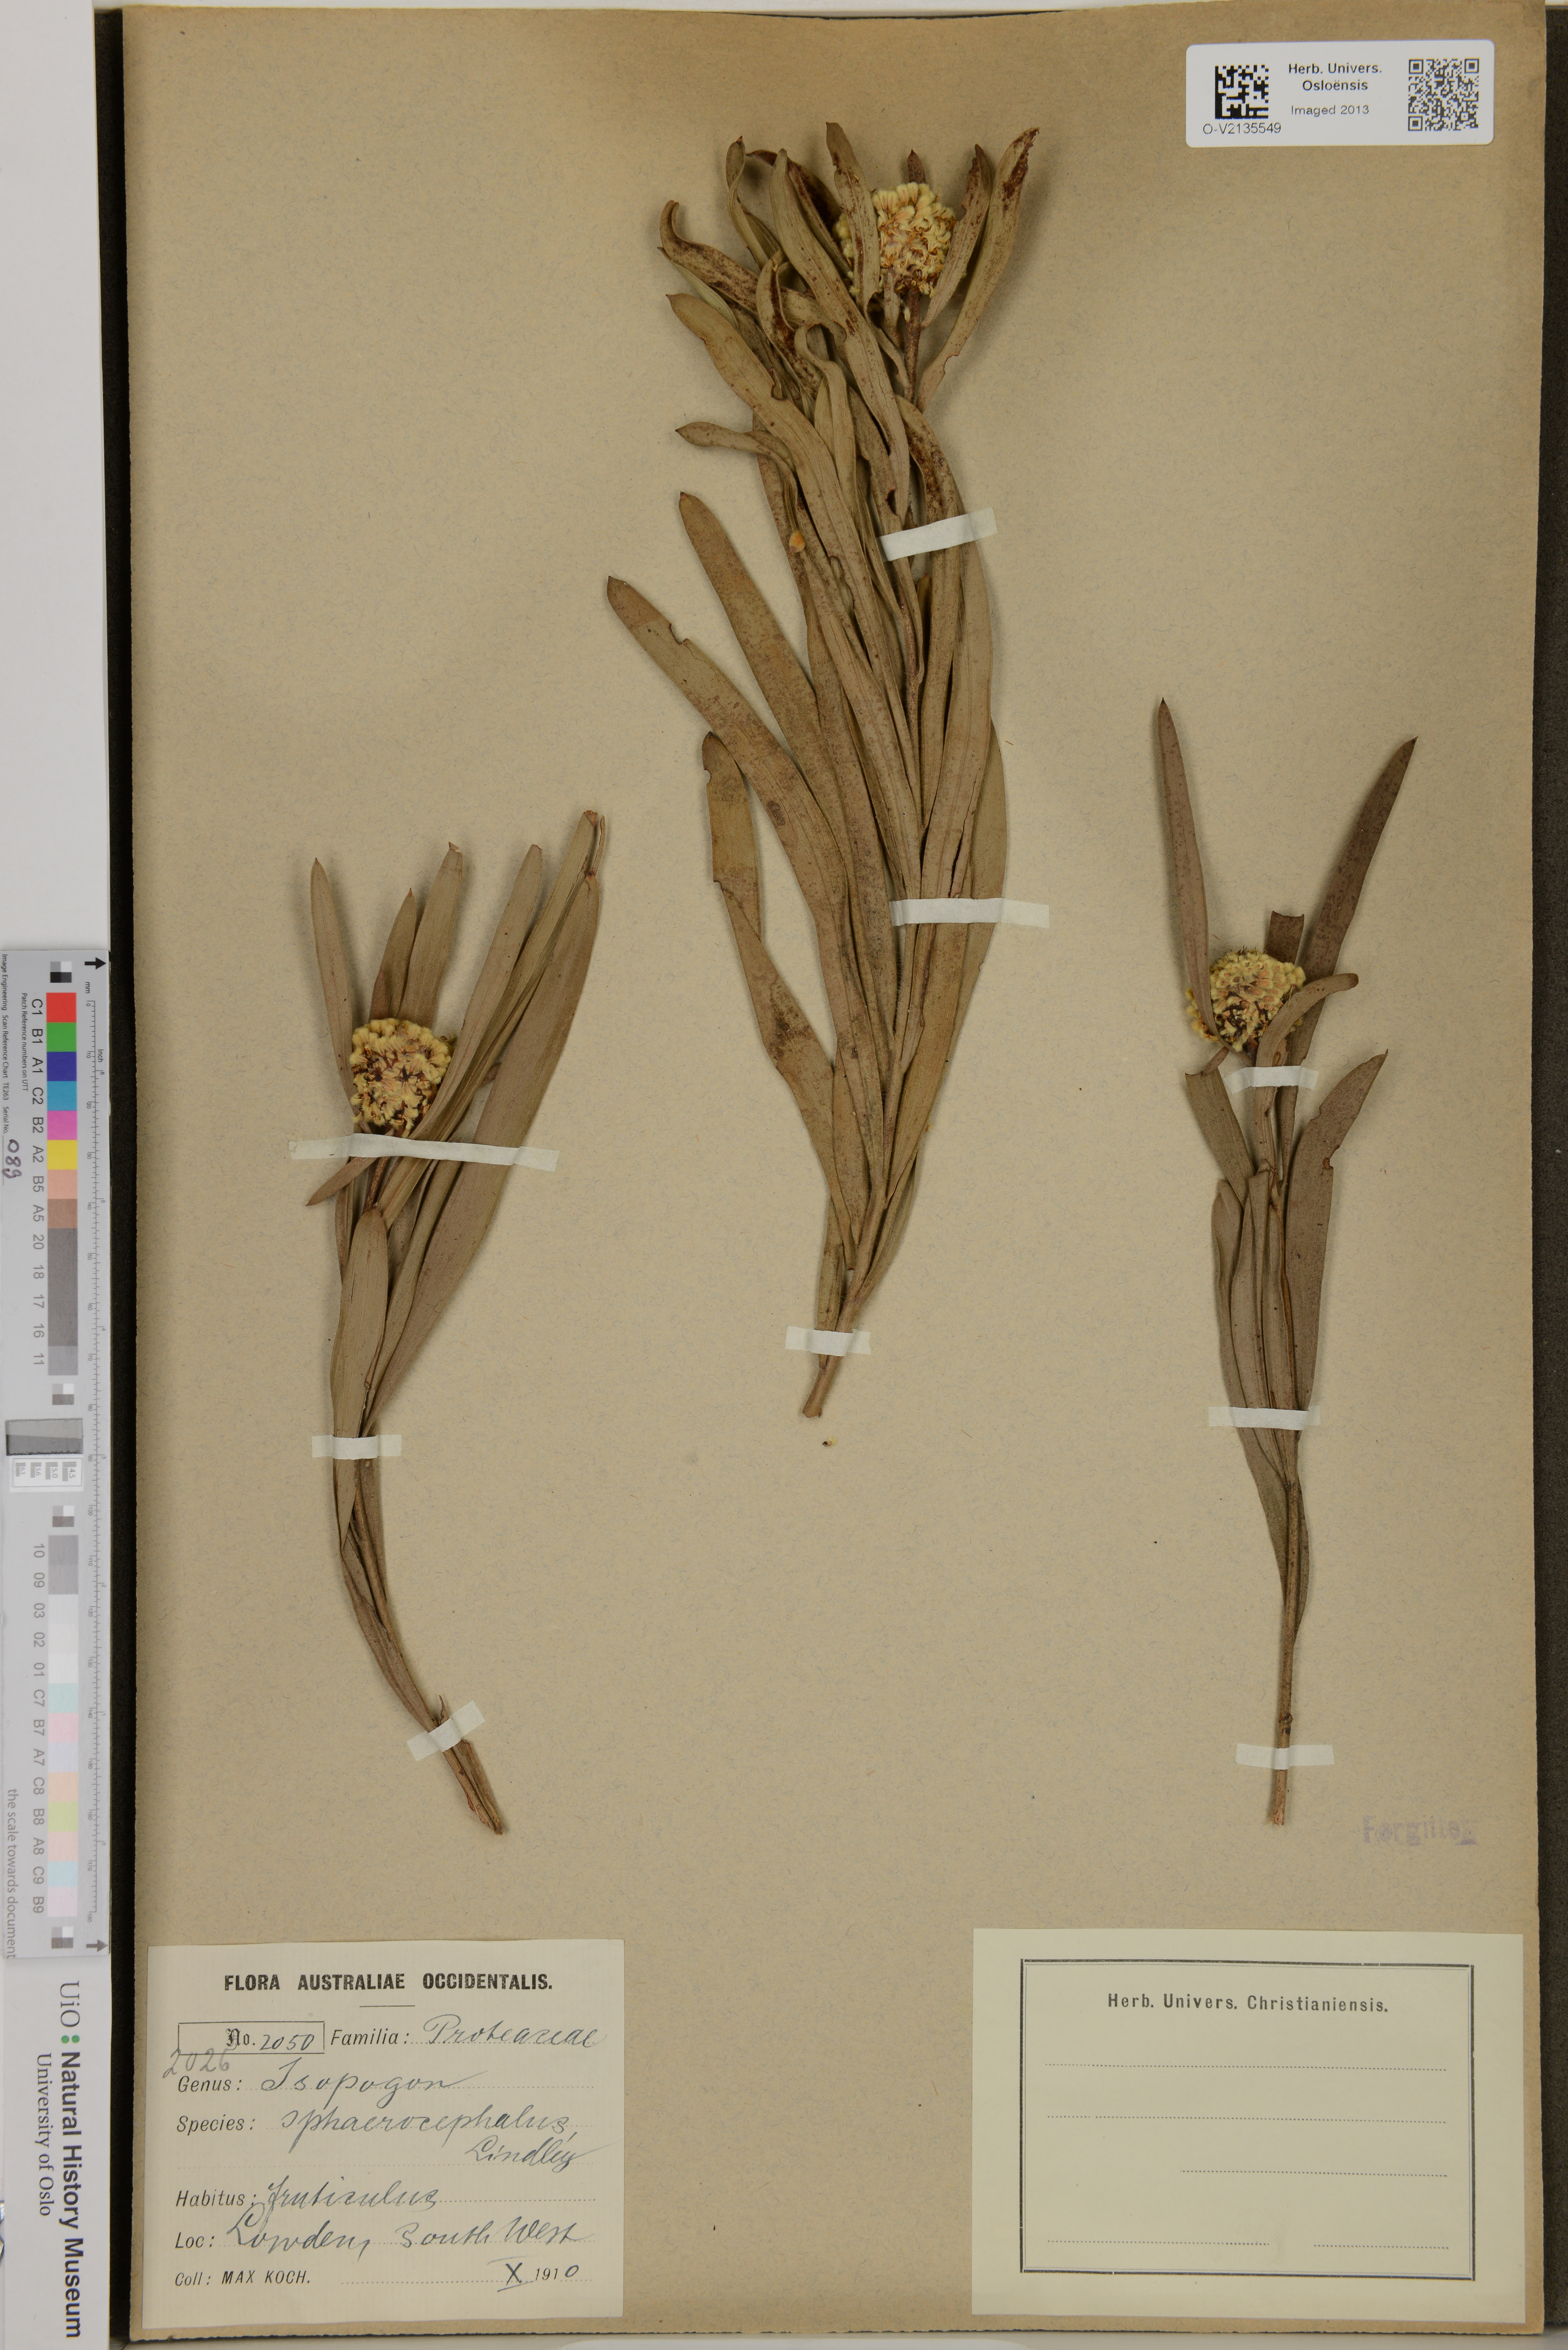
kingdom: Plantae
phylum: Tracheophyta
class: Magnoliopsida
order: Proteales
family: Proteaceae
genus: Isopogon
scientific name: Isopogon sphaerocephalus
